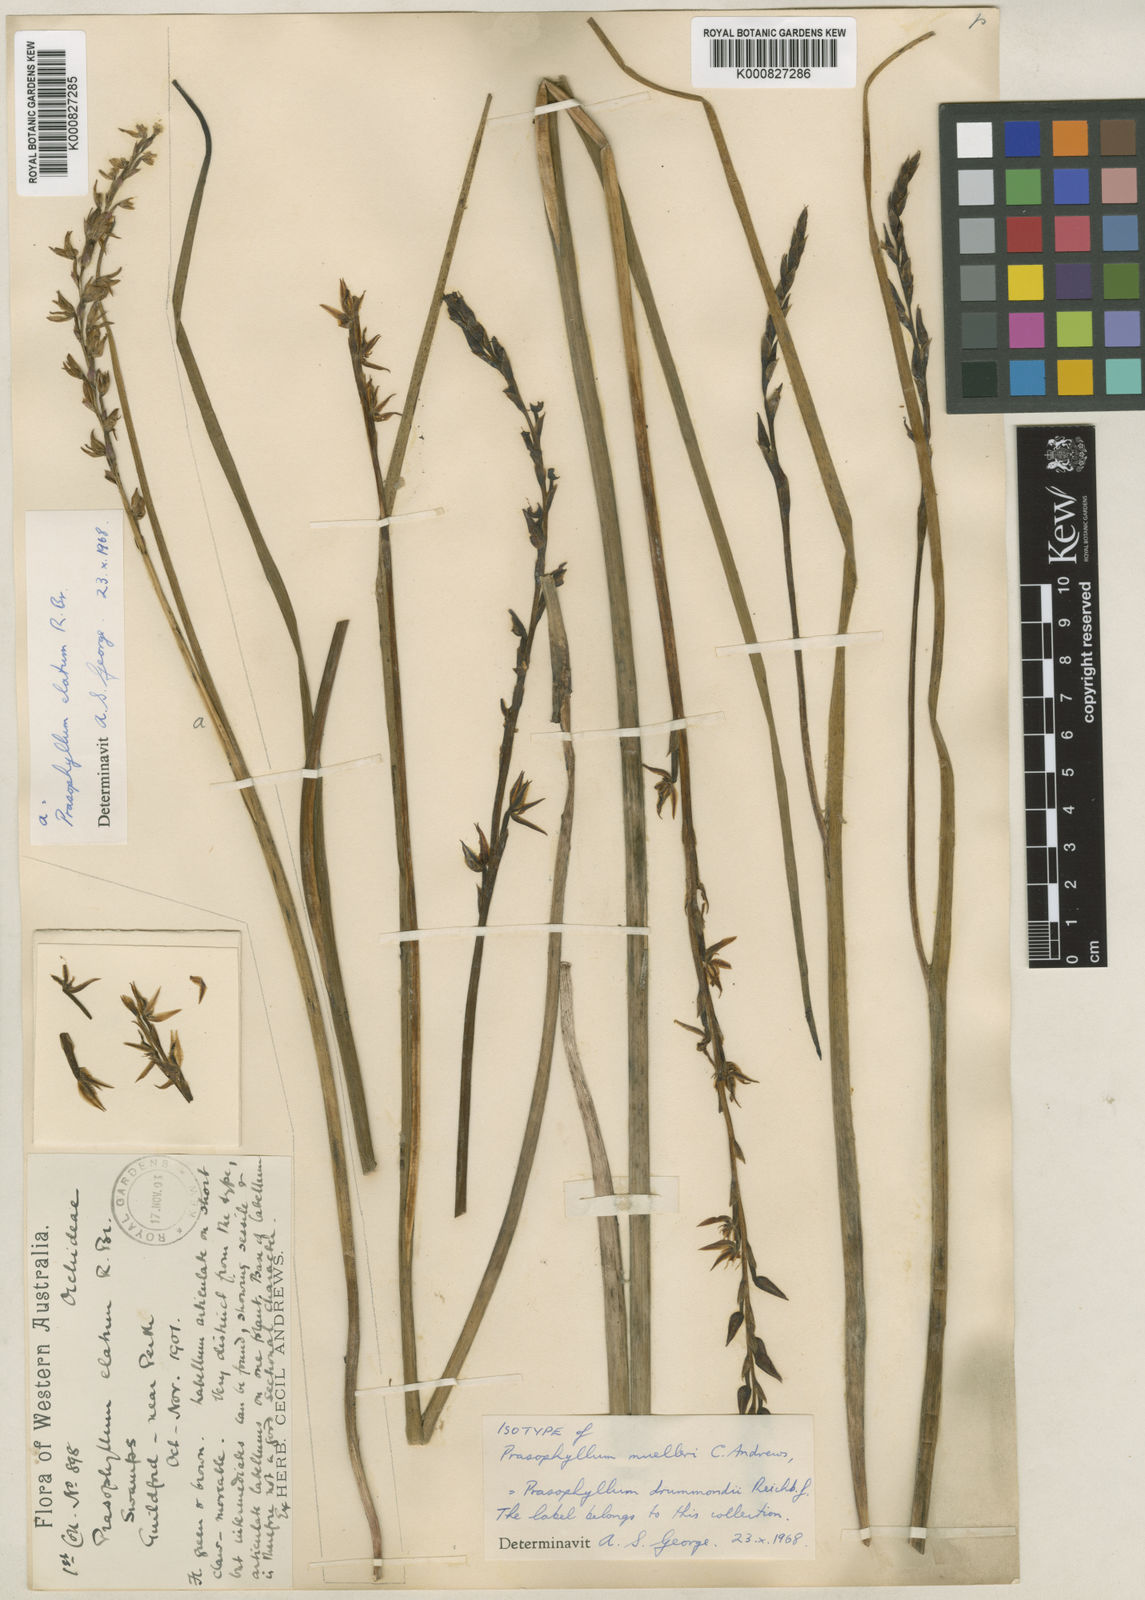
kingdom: Plantae
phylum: Tracheophyta
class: Liliopsida
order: Asparagales
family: Orchidaceae
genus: Prasophyllum
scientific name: Prasophyllum drummondii
